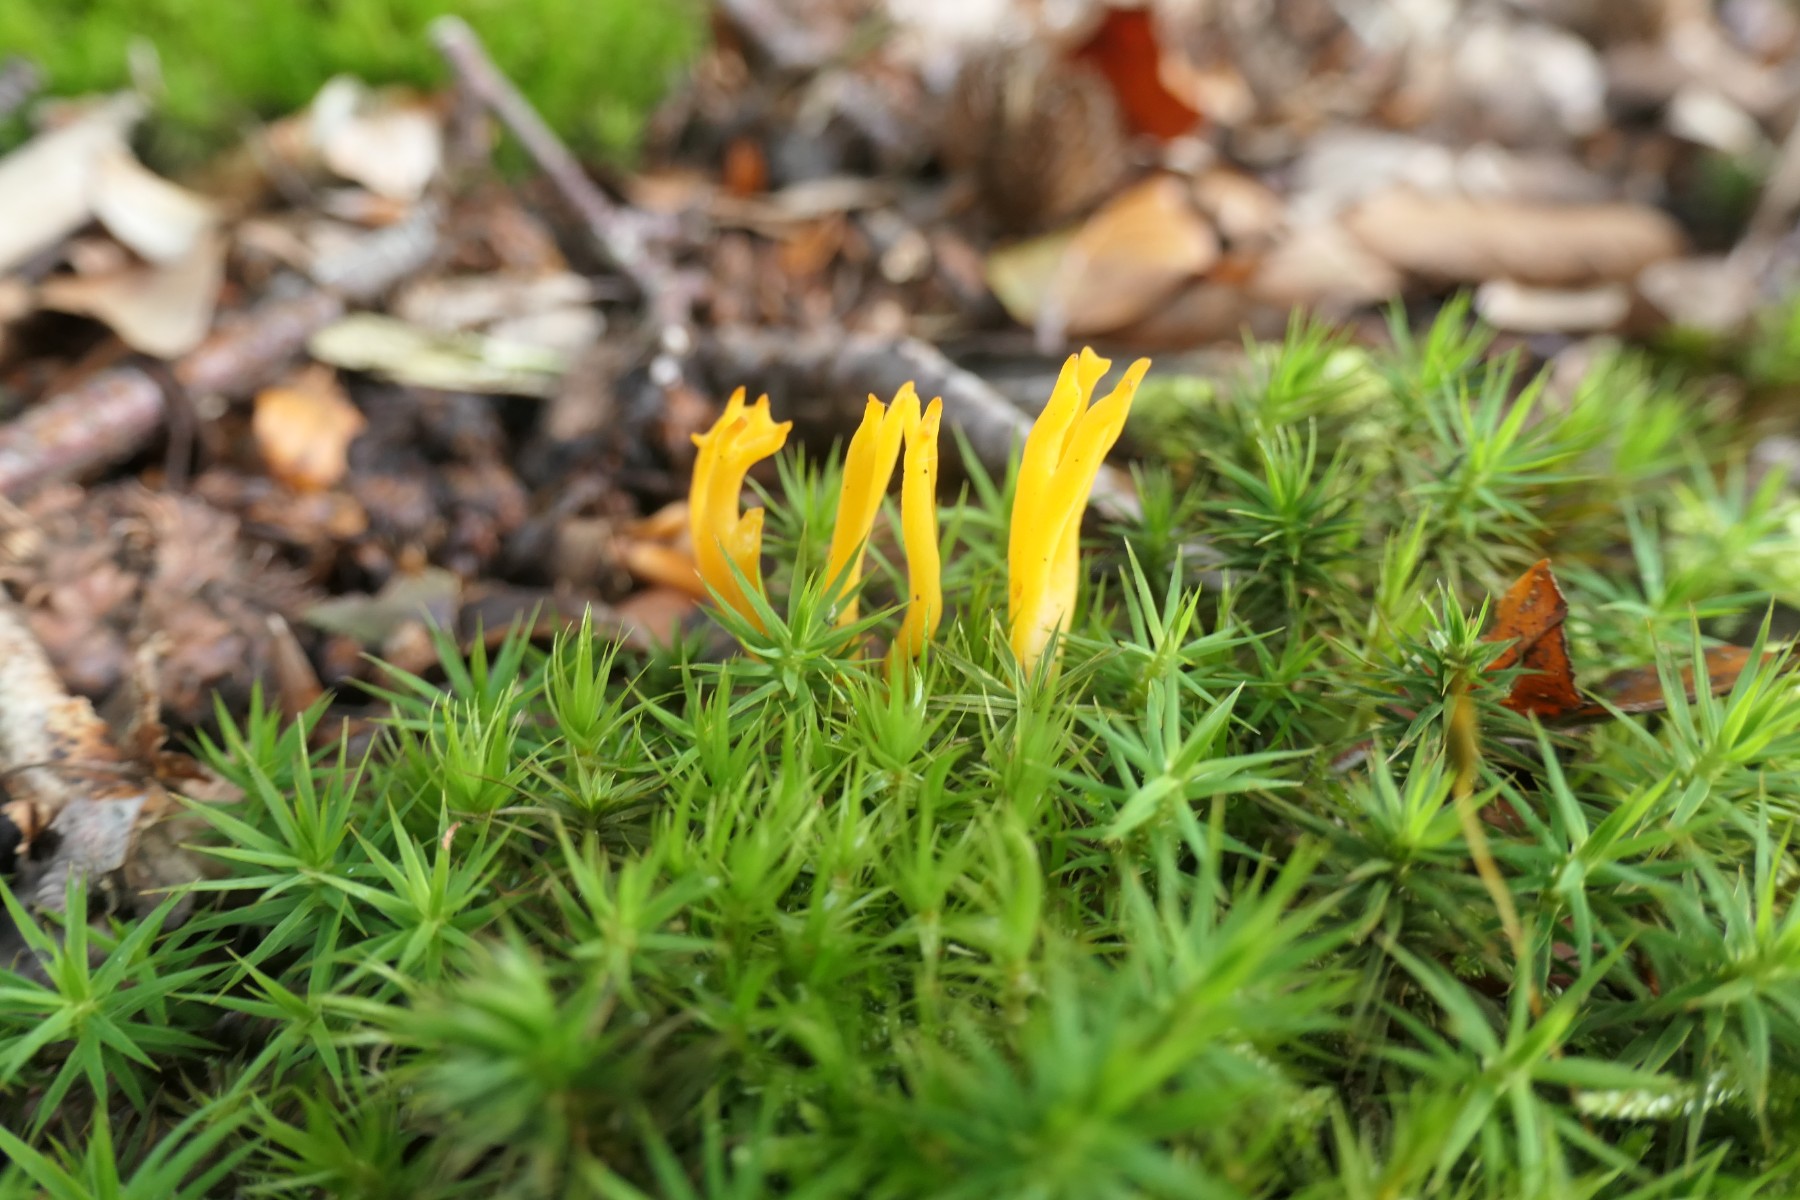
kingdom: Fungi
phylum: Basidiomycota
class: Dacrymycetes
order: Dacrymycetales
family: Dacrymycetaceae
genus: Calocera
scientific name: Calocera viscosa
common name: almindelig guldgaffel
